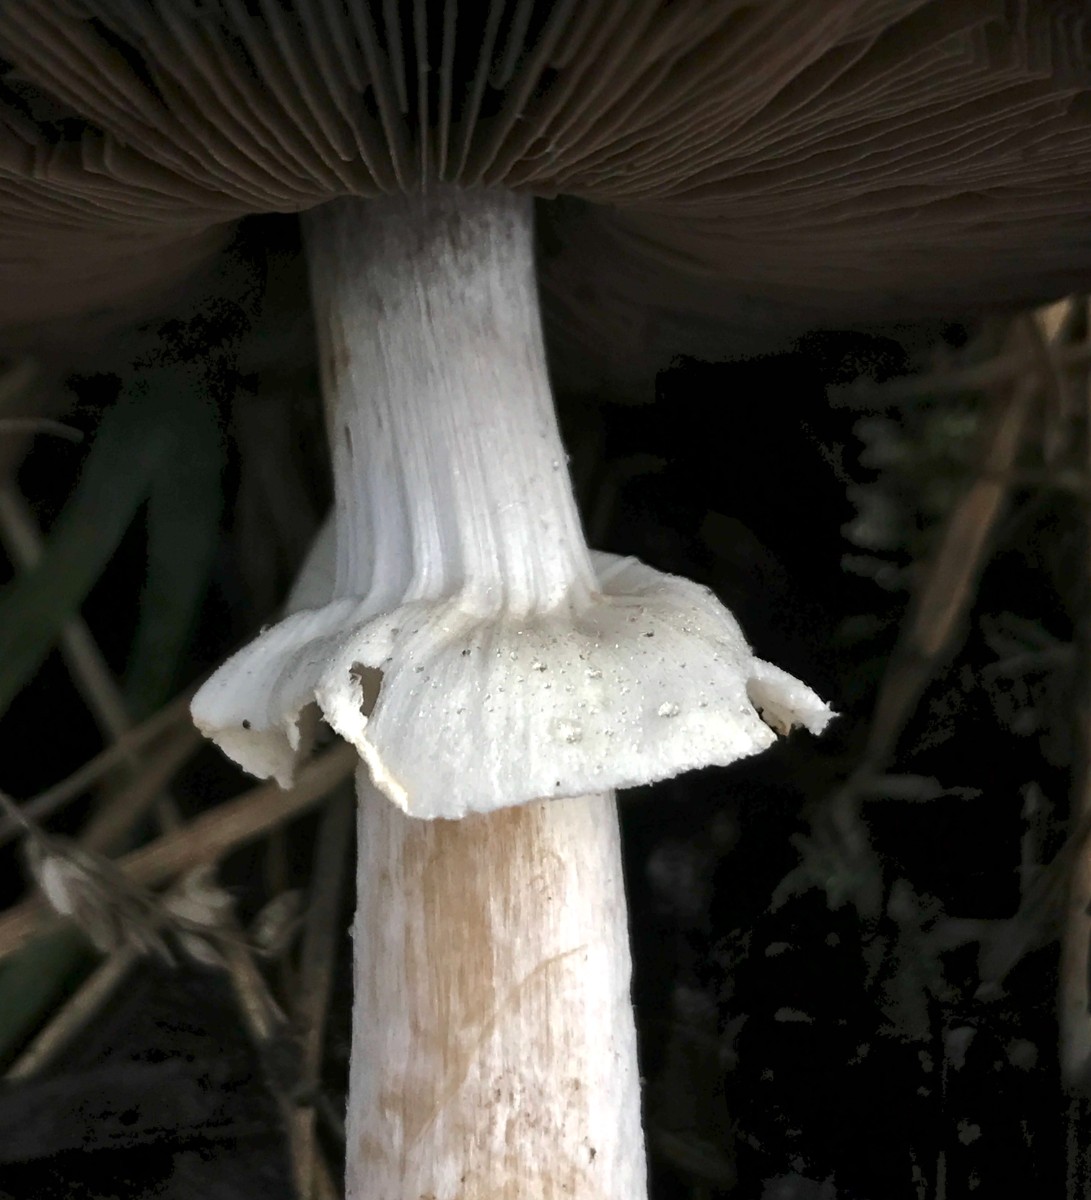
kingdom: Fungi
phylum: Basidiomycota
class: Agaricomycetes
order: Agaricales
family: Agaricaceae
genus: Agaricus
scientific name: Agaricus impudicus
